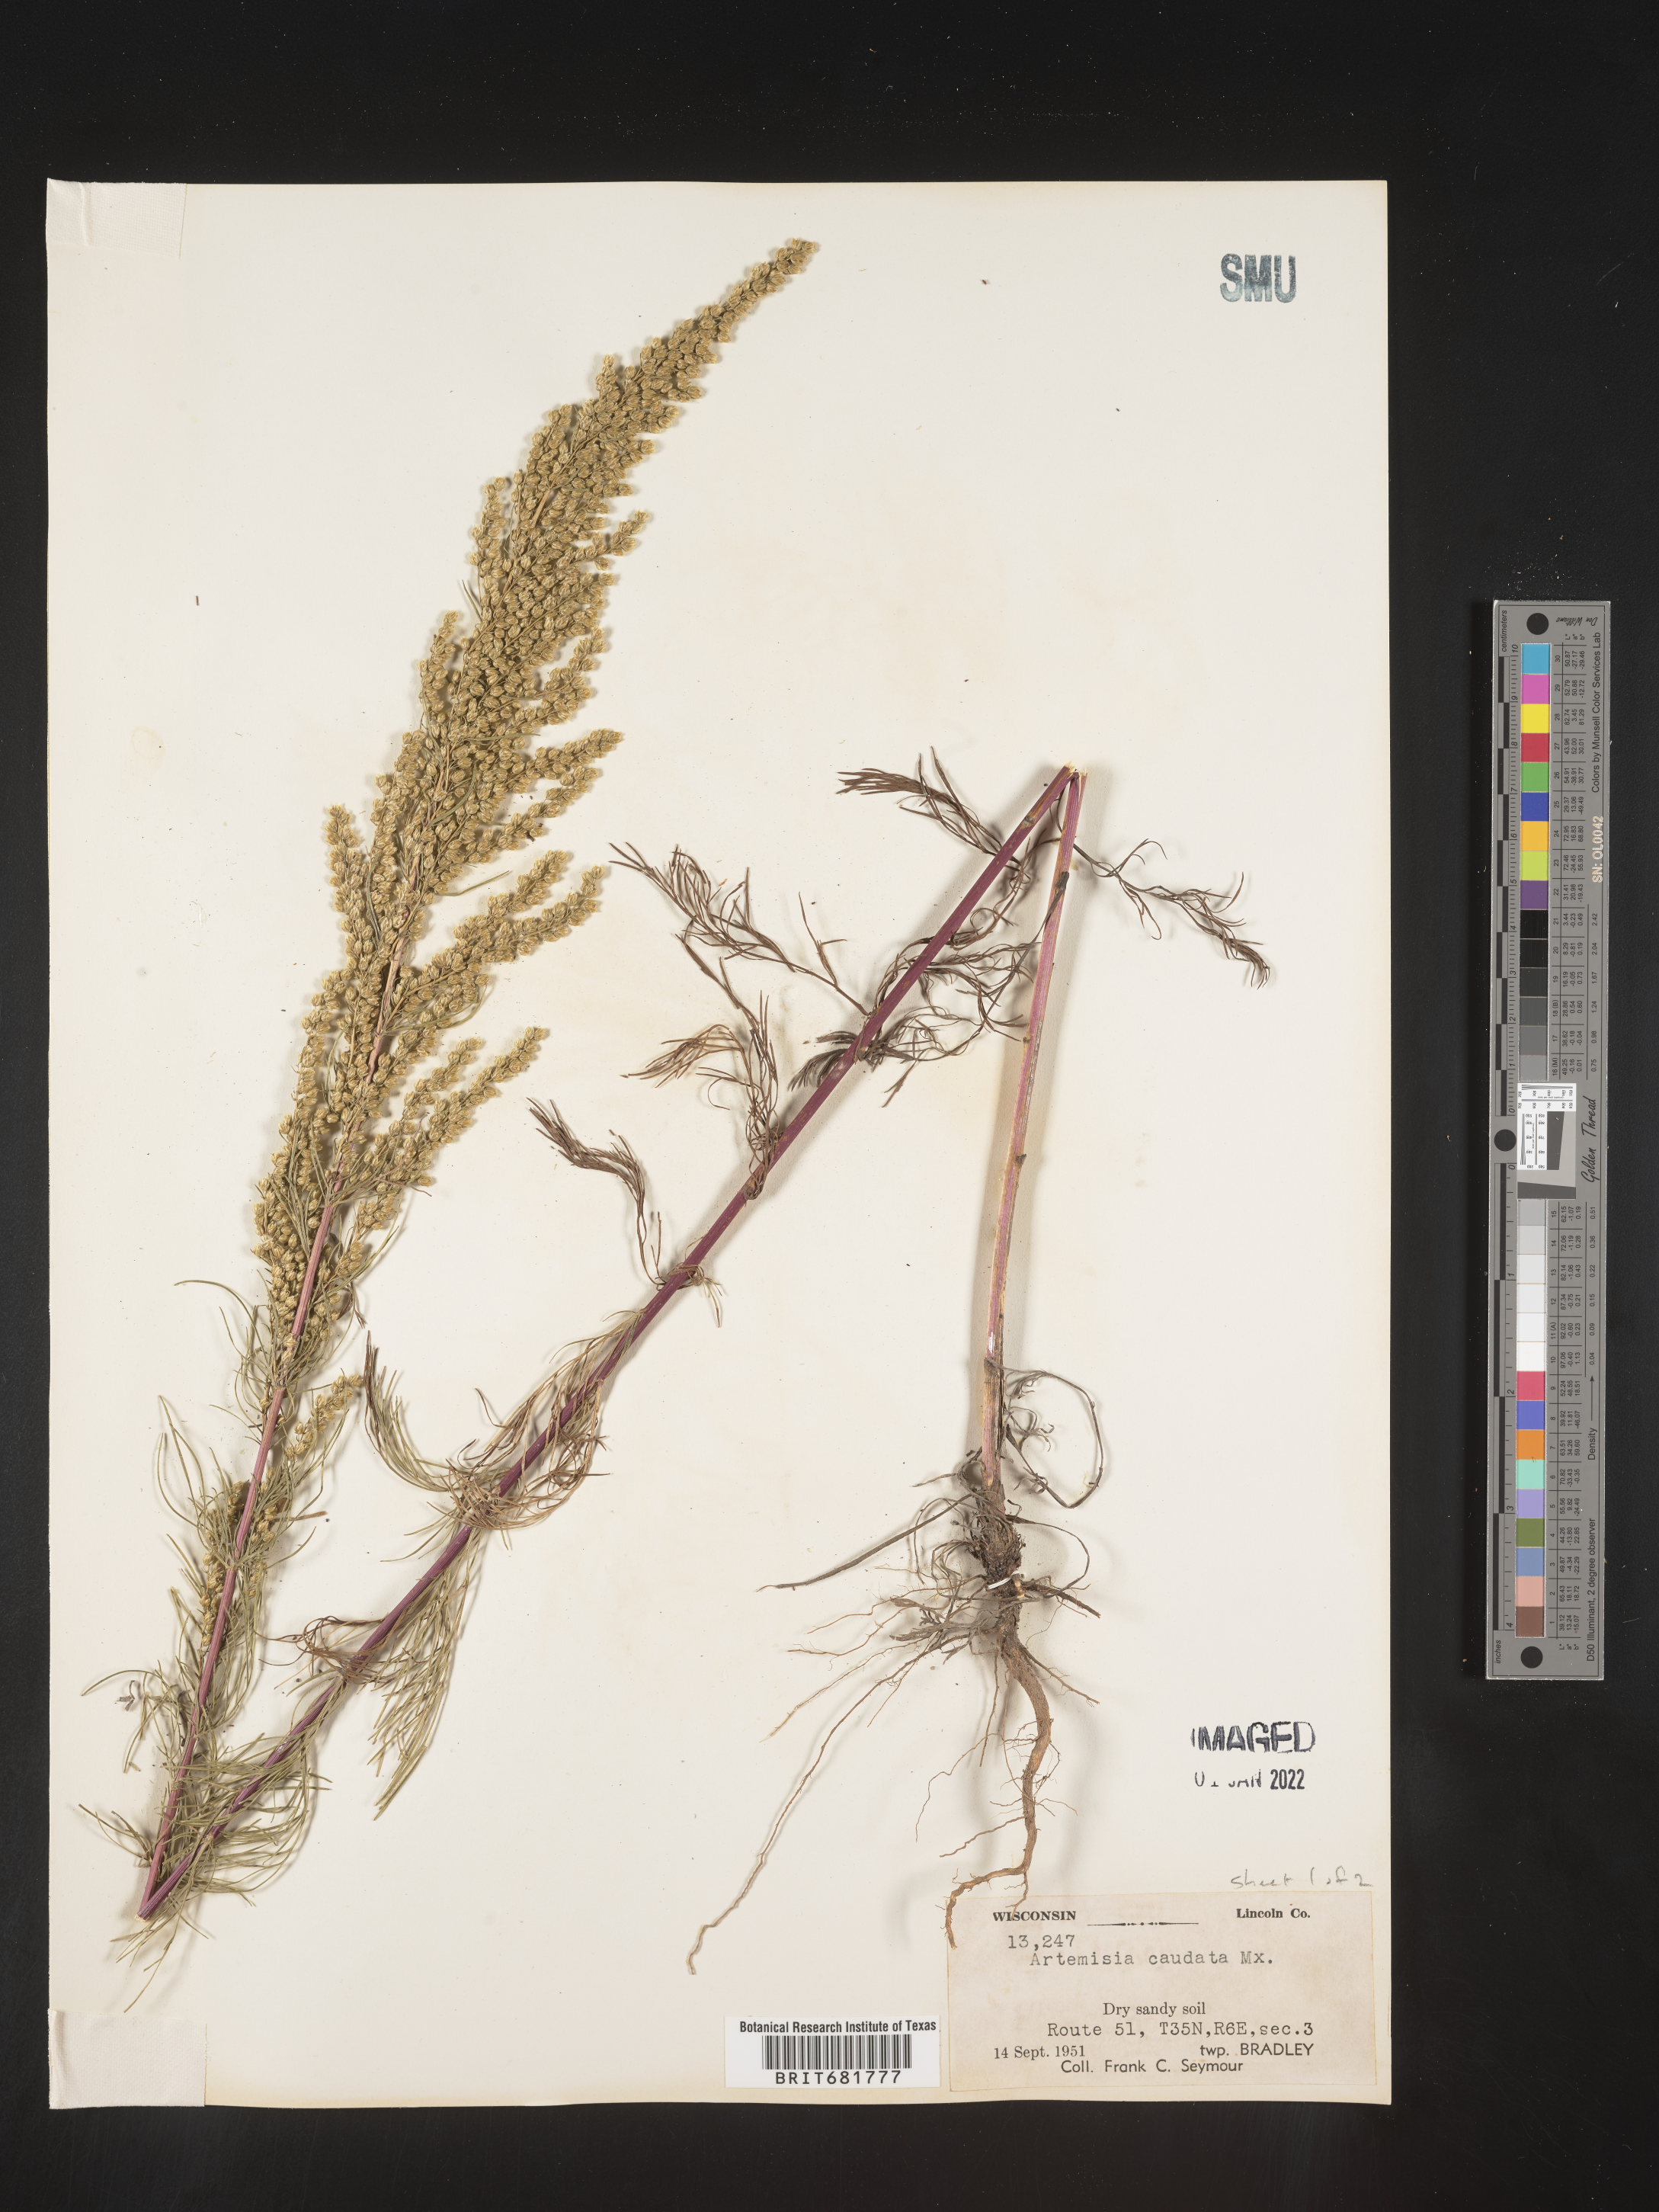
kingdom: Plantae
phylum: Tracheophyta
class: Magnoliopsida
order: Asterales
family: Asteraceae
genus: Artemisia
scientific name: Artemisia campestris
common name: Field wormwood
